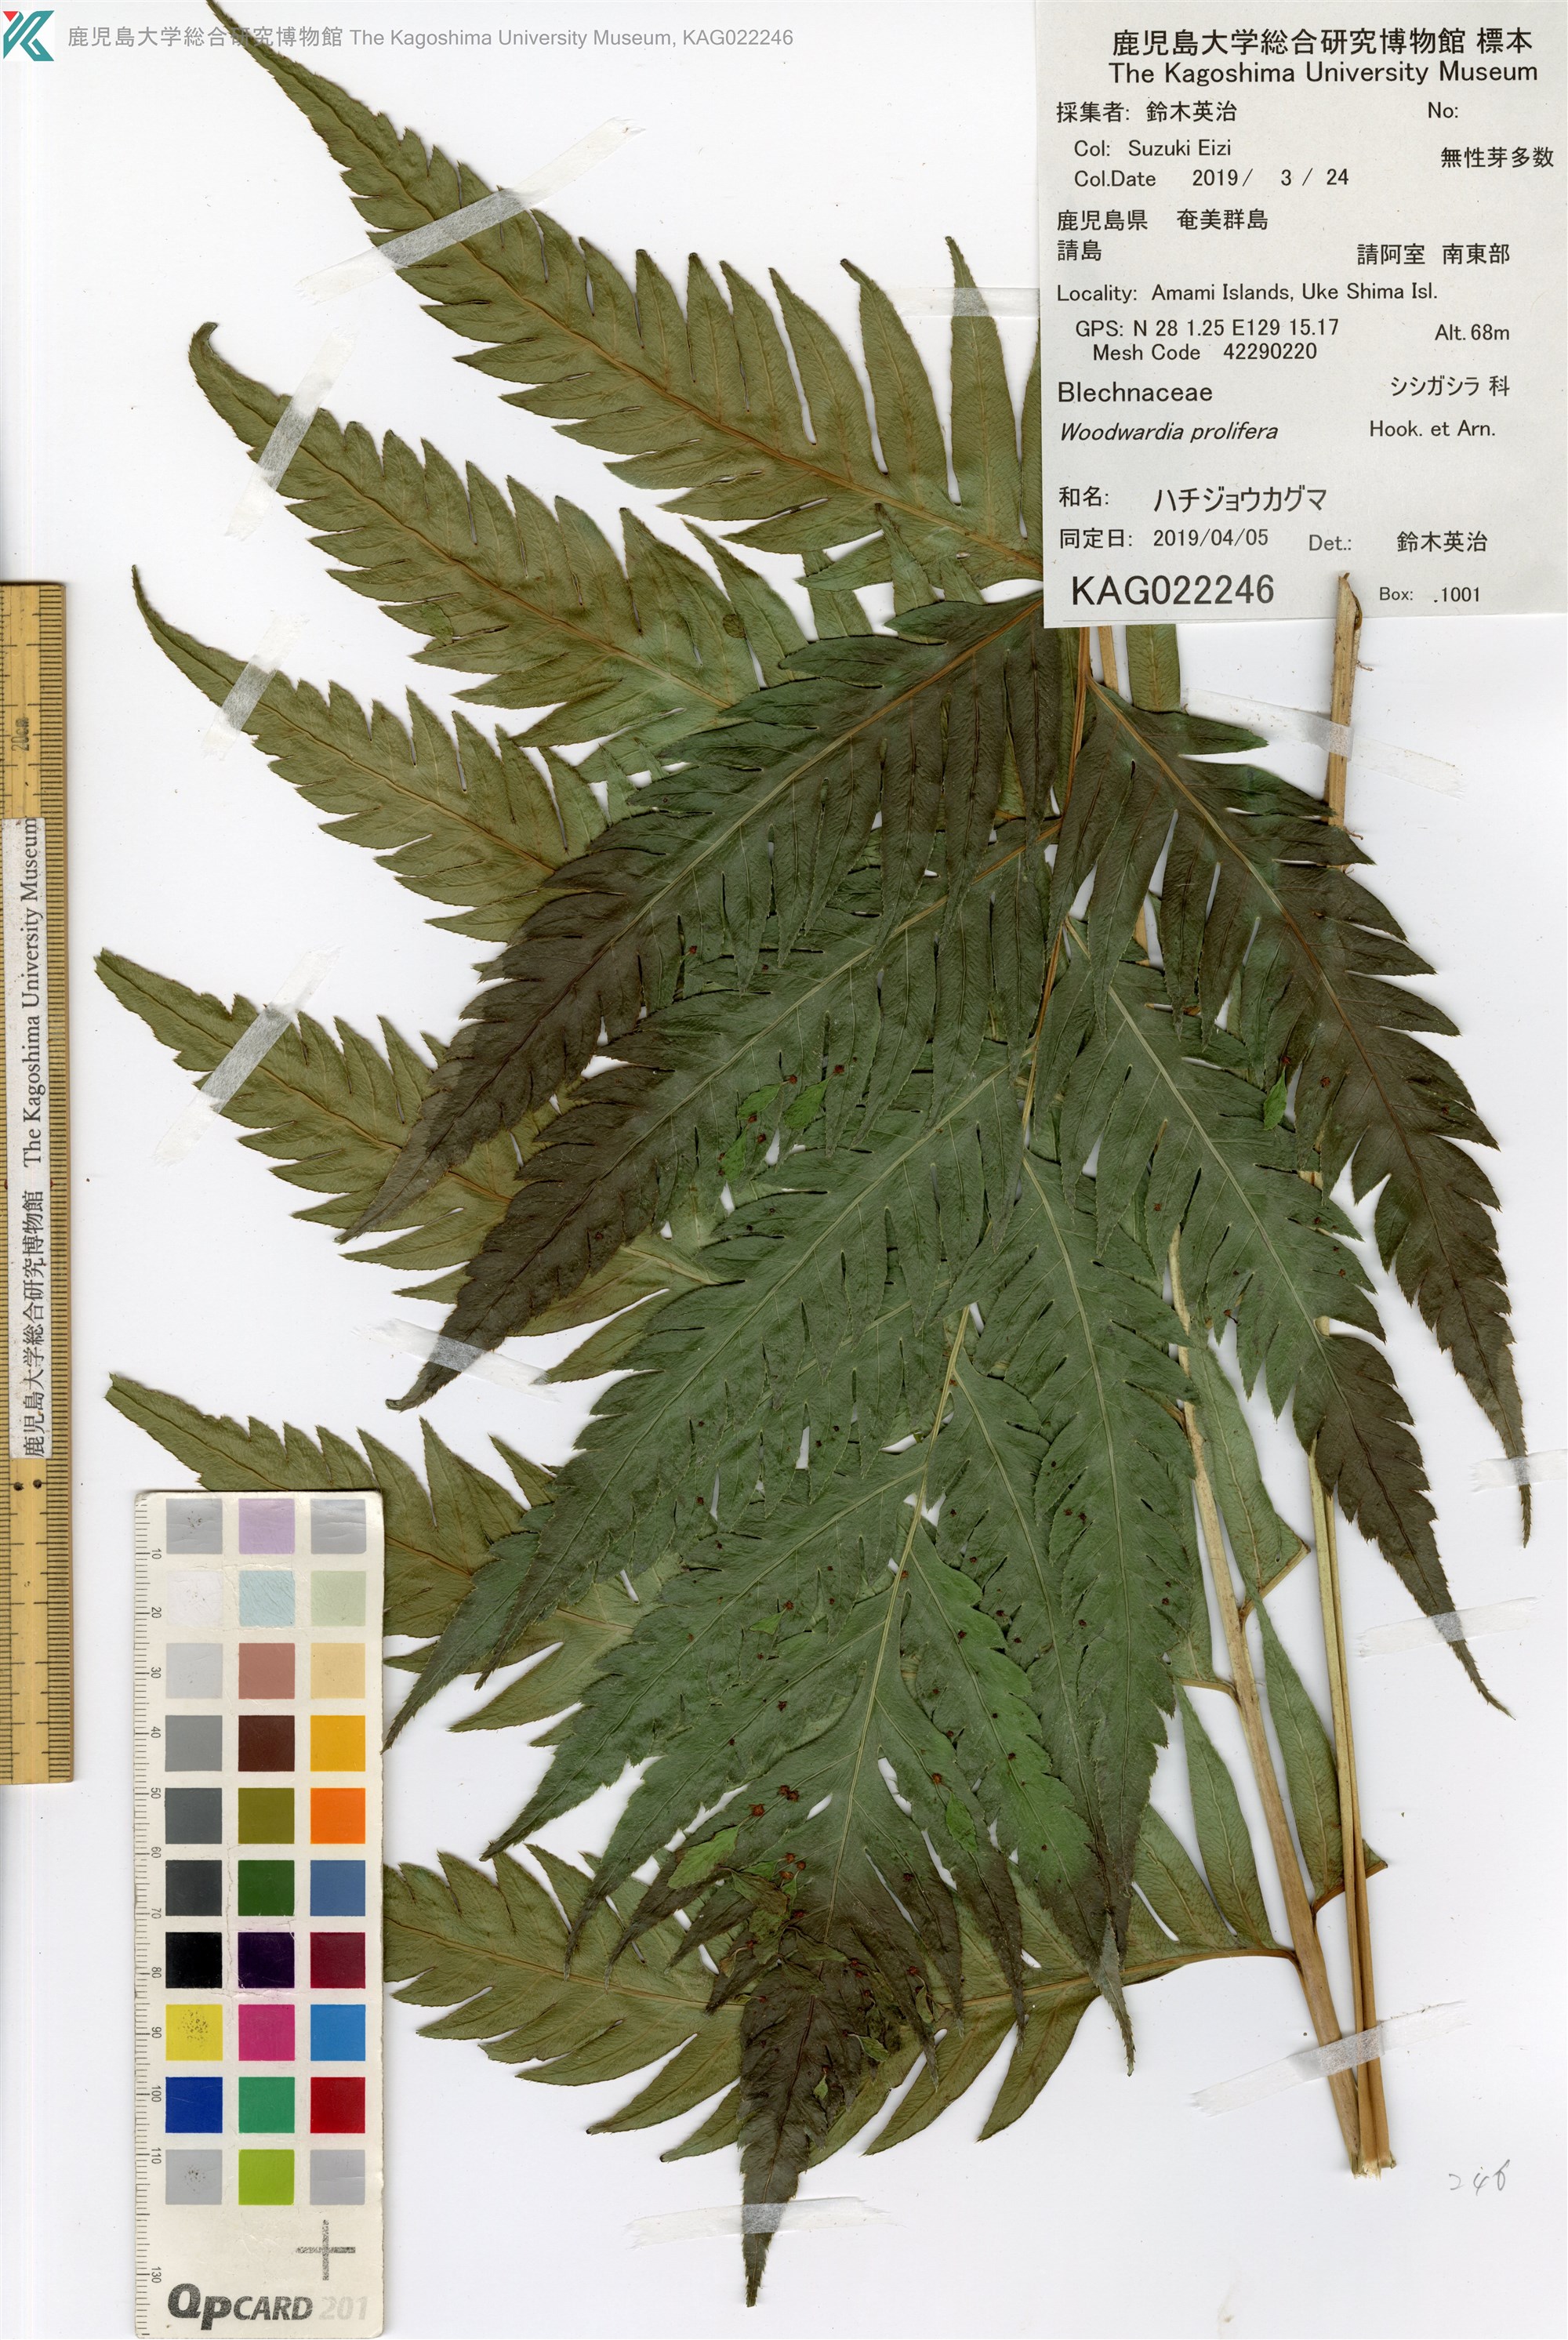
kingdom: Plantae
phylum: Tracheophyta
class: Polypodiopsida
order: Polypodiales
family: Blechnaceae
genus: Woodwardia
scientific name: Woodwardia prolifera
